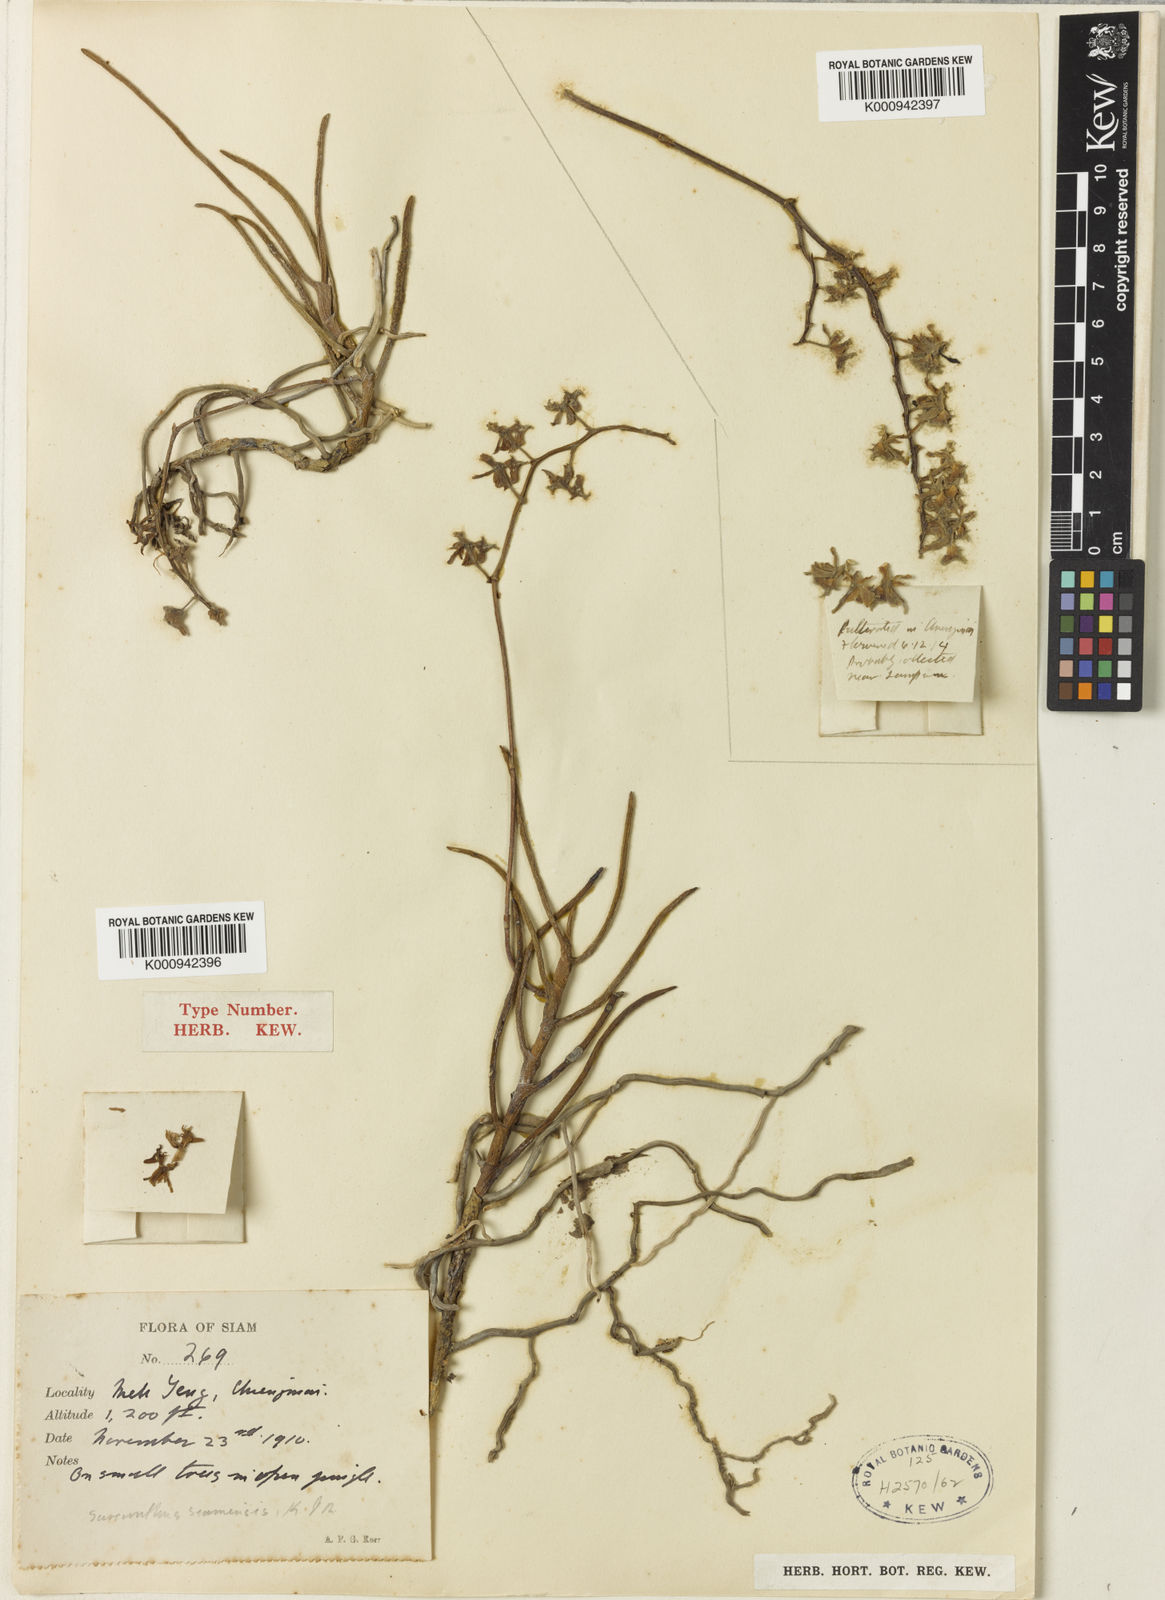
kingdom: Plantae
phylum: Tracheophyta
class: Liliopsida
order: Asparagales
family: Orchidaceae
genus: Cleisostoma
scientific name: Cleisostoma simondii
